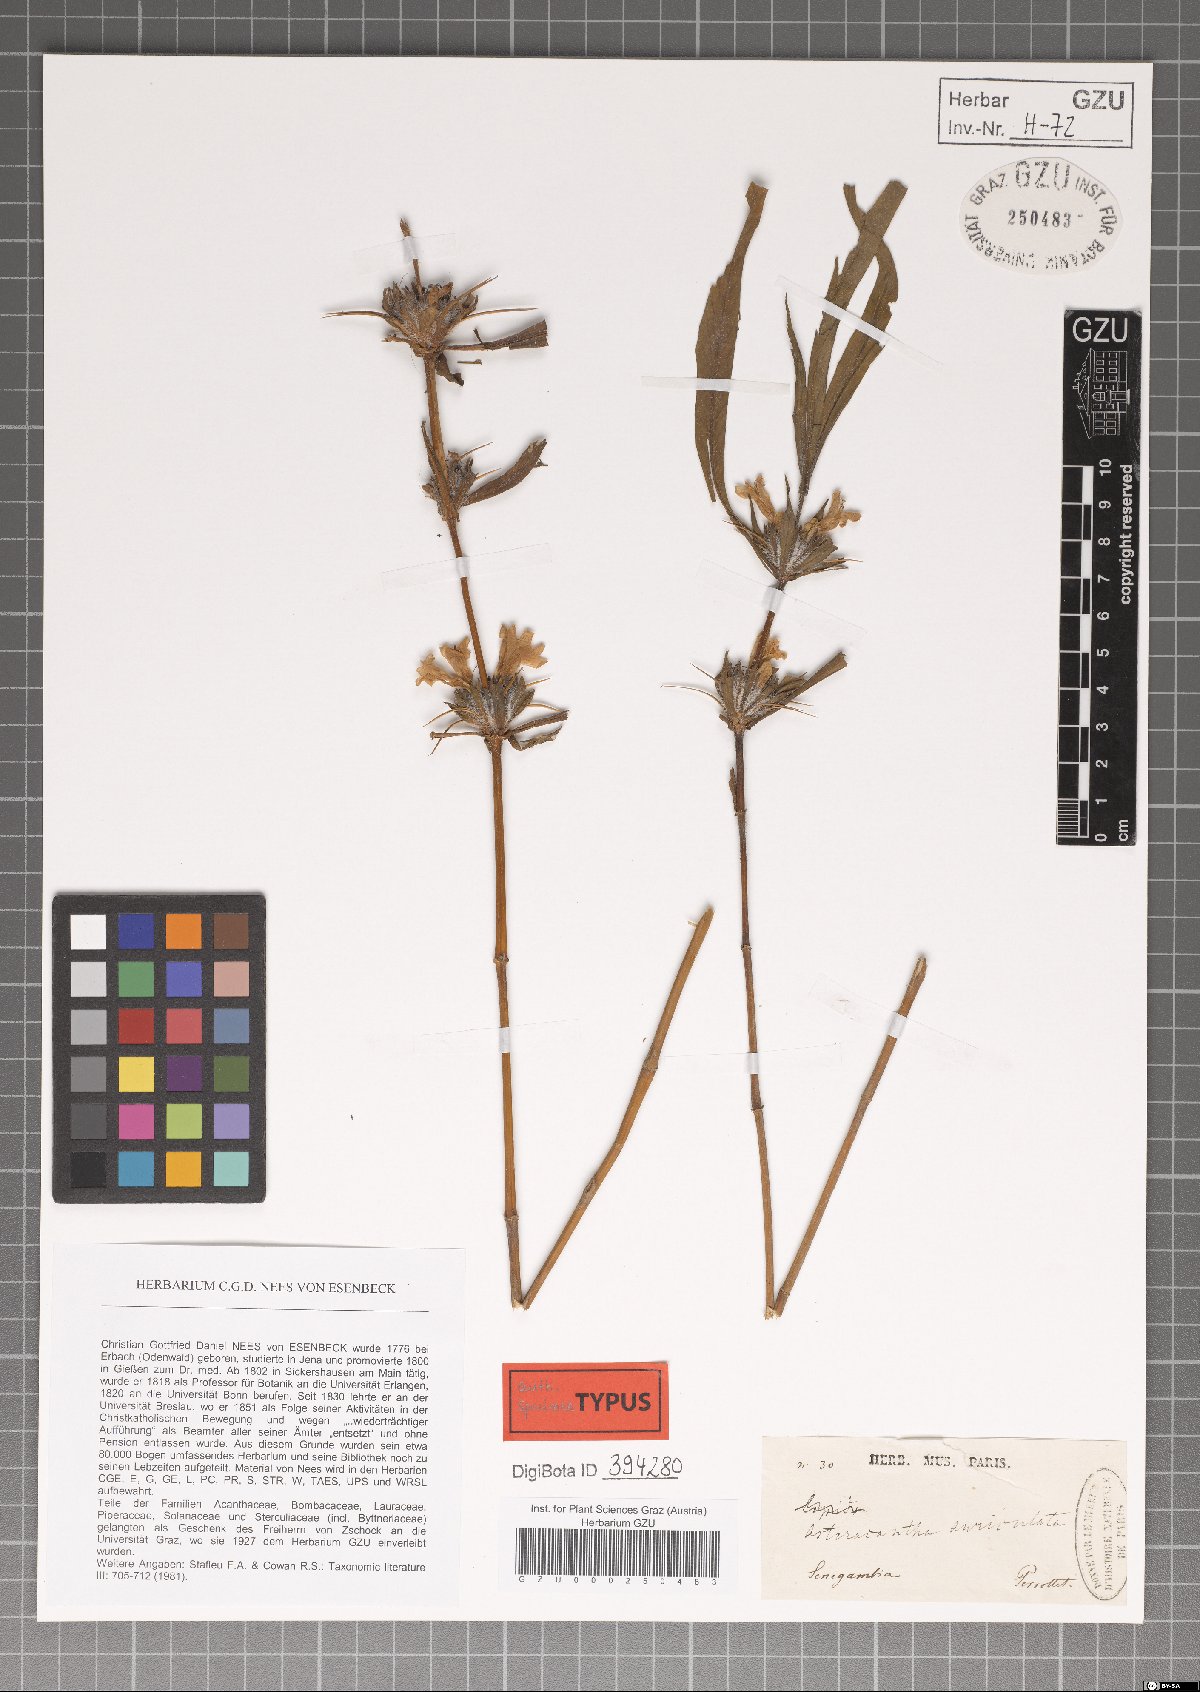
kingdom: Plantae
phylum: Tracheophyta
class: Magnoliopsida
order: Lamiales
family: Acanthaceae
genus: Hygrophila
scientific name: Hygrophila auriculata
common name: Hygrophila
